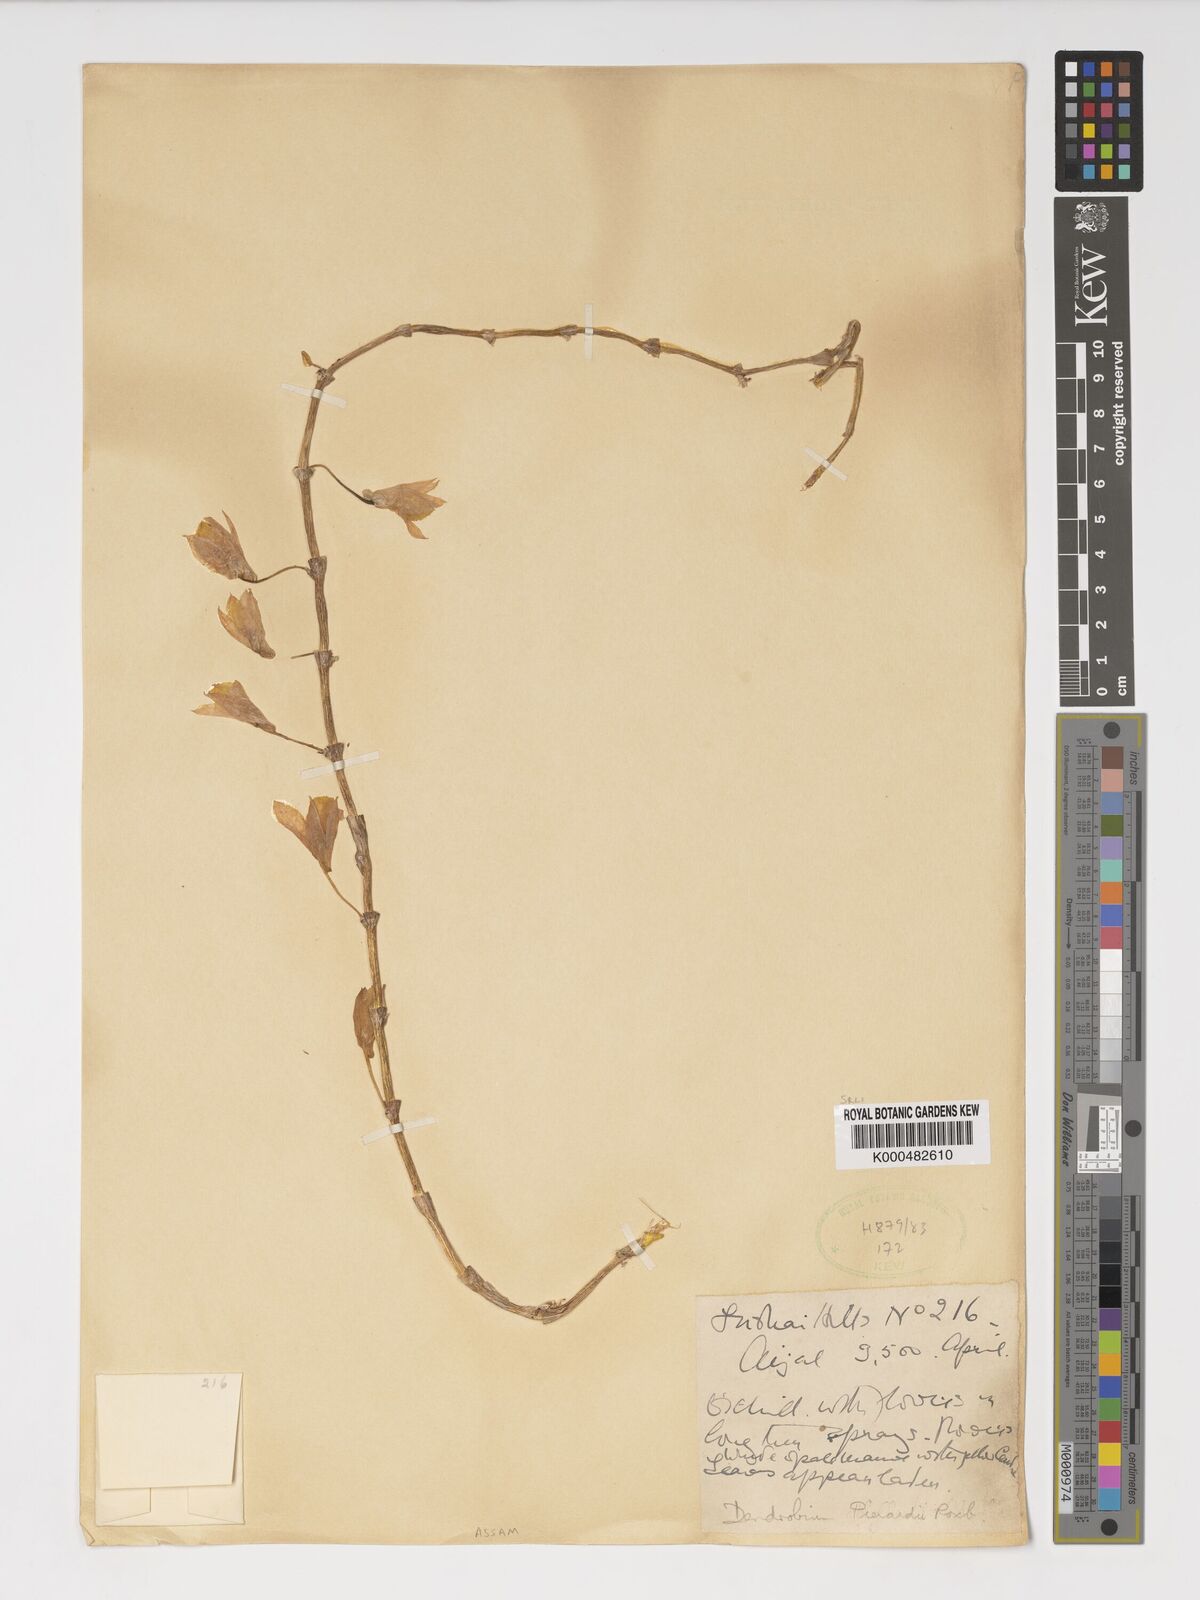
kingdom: Plantae
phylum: Tracheophyta
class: Liliopsida
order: Asparagales
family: Orchidaceae
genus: Dendrobium
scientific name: Dendrobium macrostachyum
